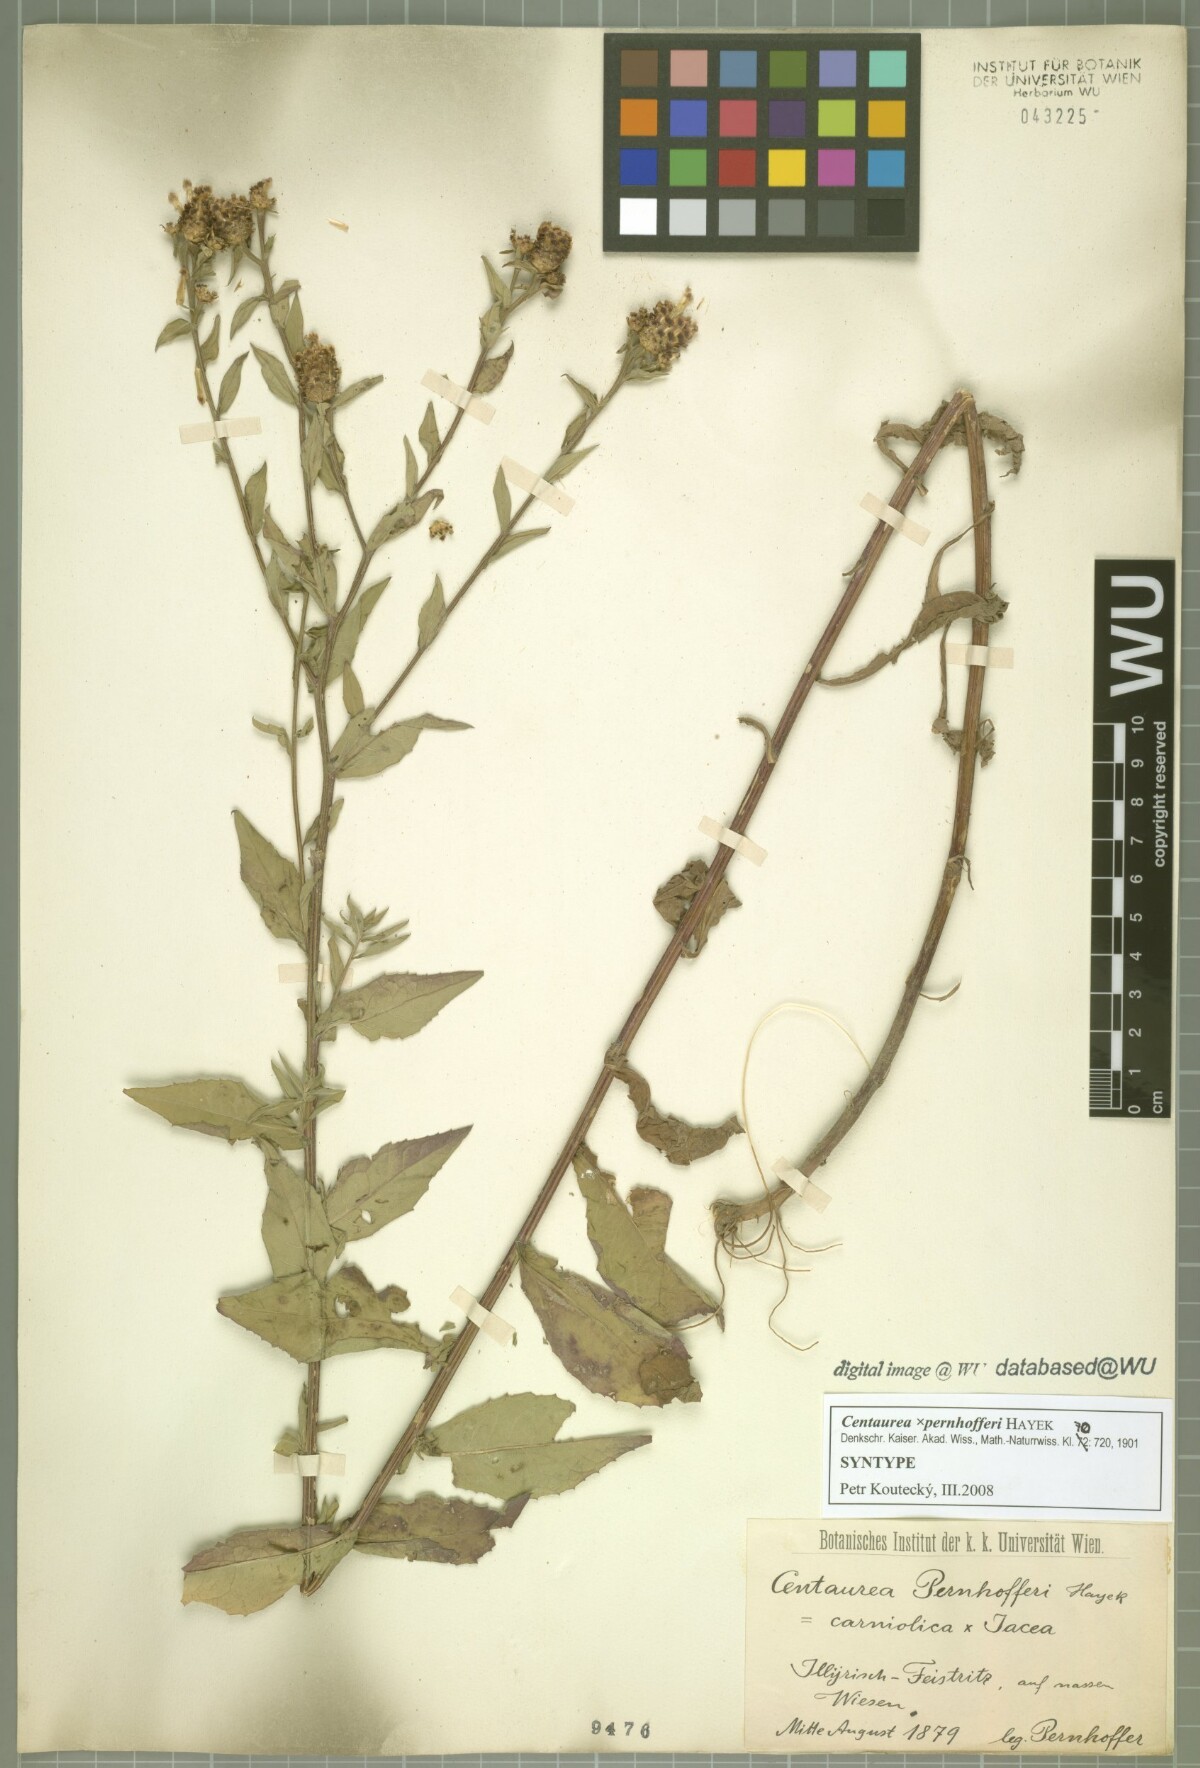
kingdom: Plantae
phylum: Tracheophyta
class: Magnoliopsida
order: Asterales
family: Asteraceae
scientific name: Asteraceae
